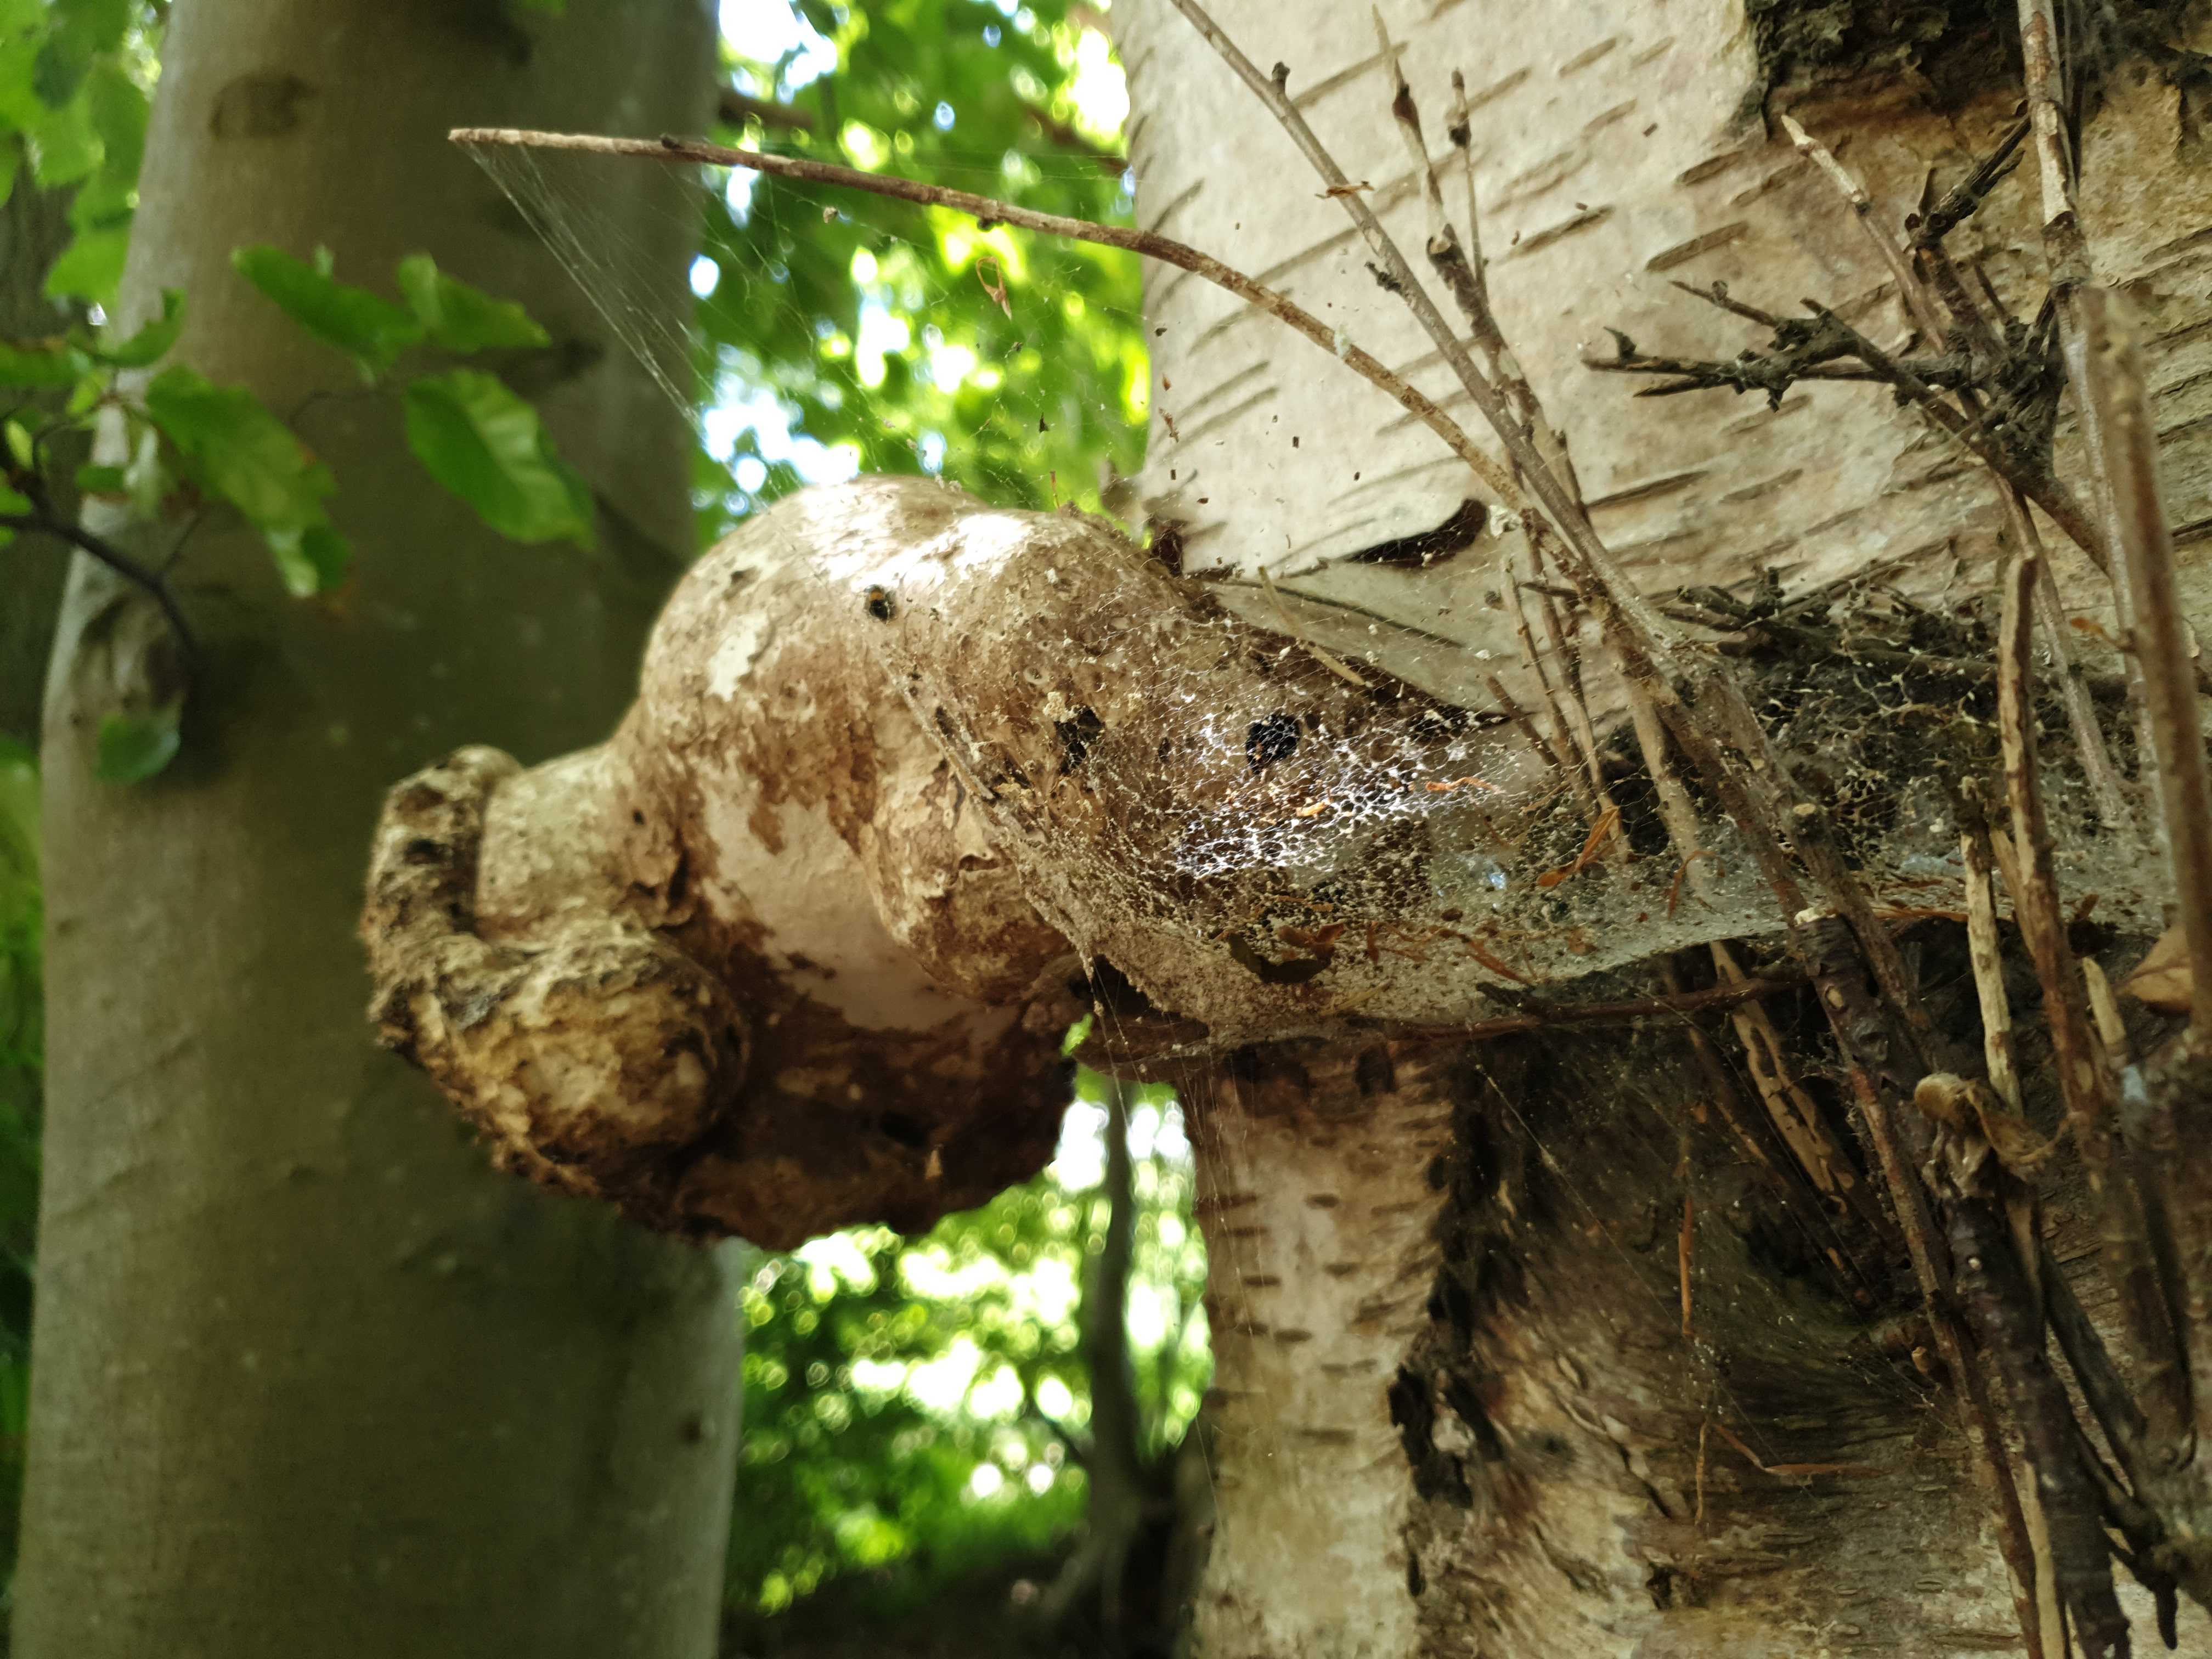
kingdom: Fungi
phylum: Basidiomycota
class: Agaricomycetes
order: Polyporales
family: Fomitopsidaceae
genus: Fomitopsis
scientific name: Fomitopsis betulina
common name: birkeporesvamp
